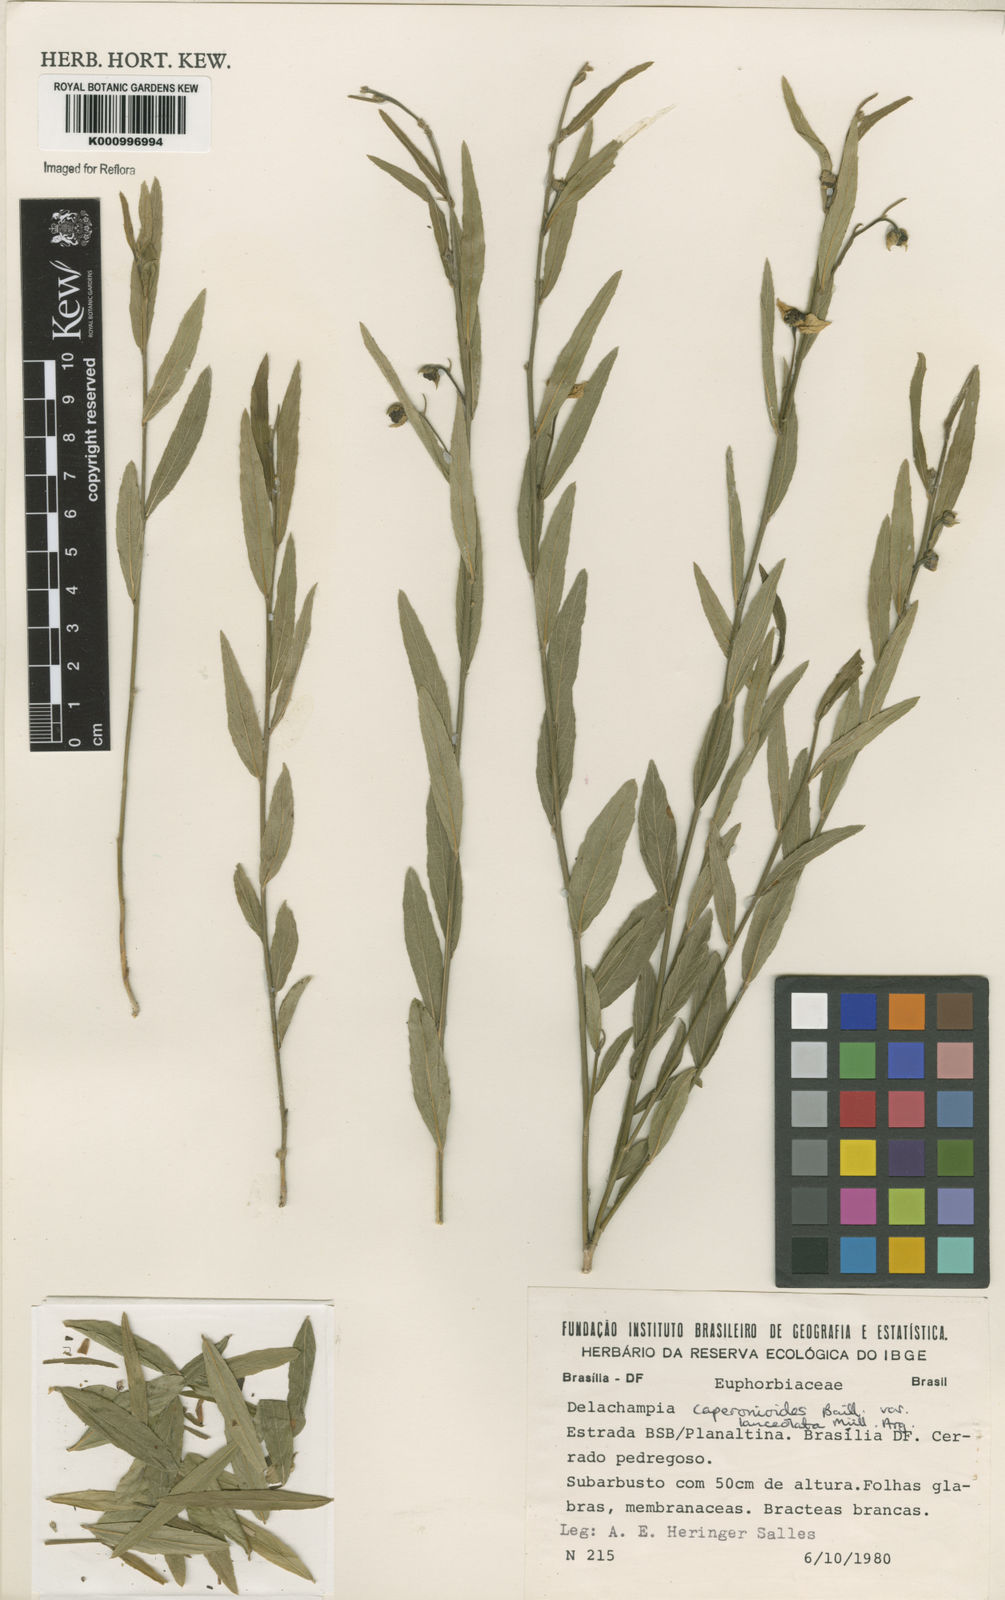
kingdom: Plantae
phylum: Tracheophyta
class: Magnoliopsida
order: Malpighiales
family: Euphorbiaceae
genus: Dalechampia
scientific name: Dalechampia caperonioides
